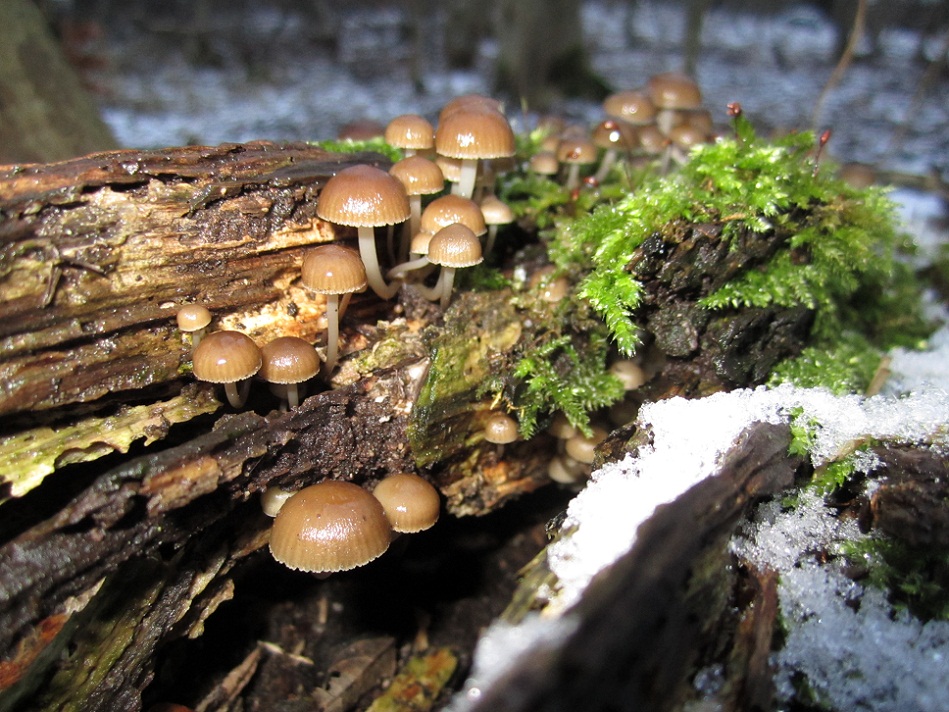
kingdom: Fungi
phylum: Basidiomycota
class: Agaricomycetes
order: Agaricales
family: Mycenaceae
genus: Mycena
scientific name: Mycena tintinnabulum
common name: vinter-huesvamp
